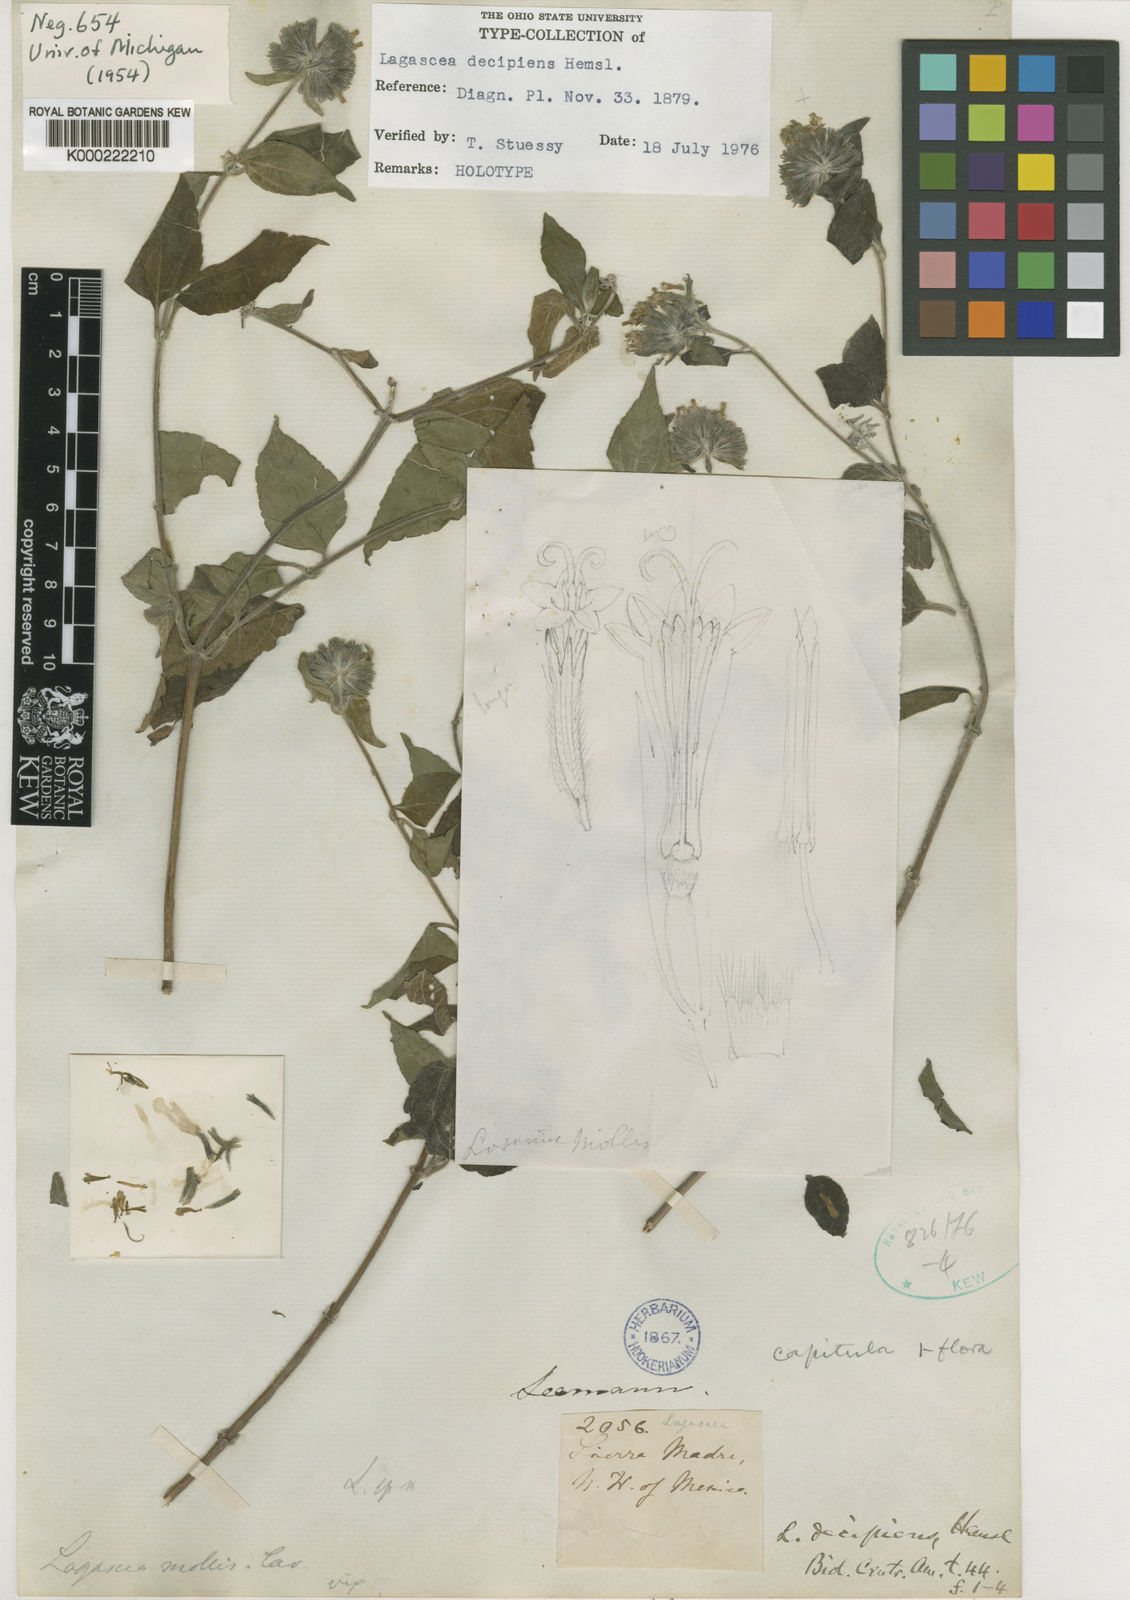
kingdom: Plantae
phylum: Tracheophyta
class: Magnoliopsida
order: Asterales
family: Asteraceae
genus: Lagascea
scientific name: Lagascea decipiens
